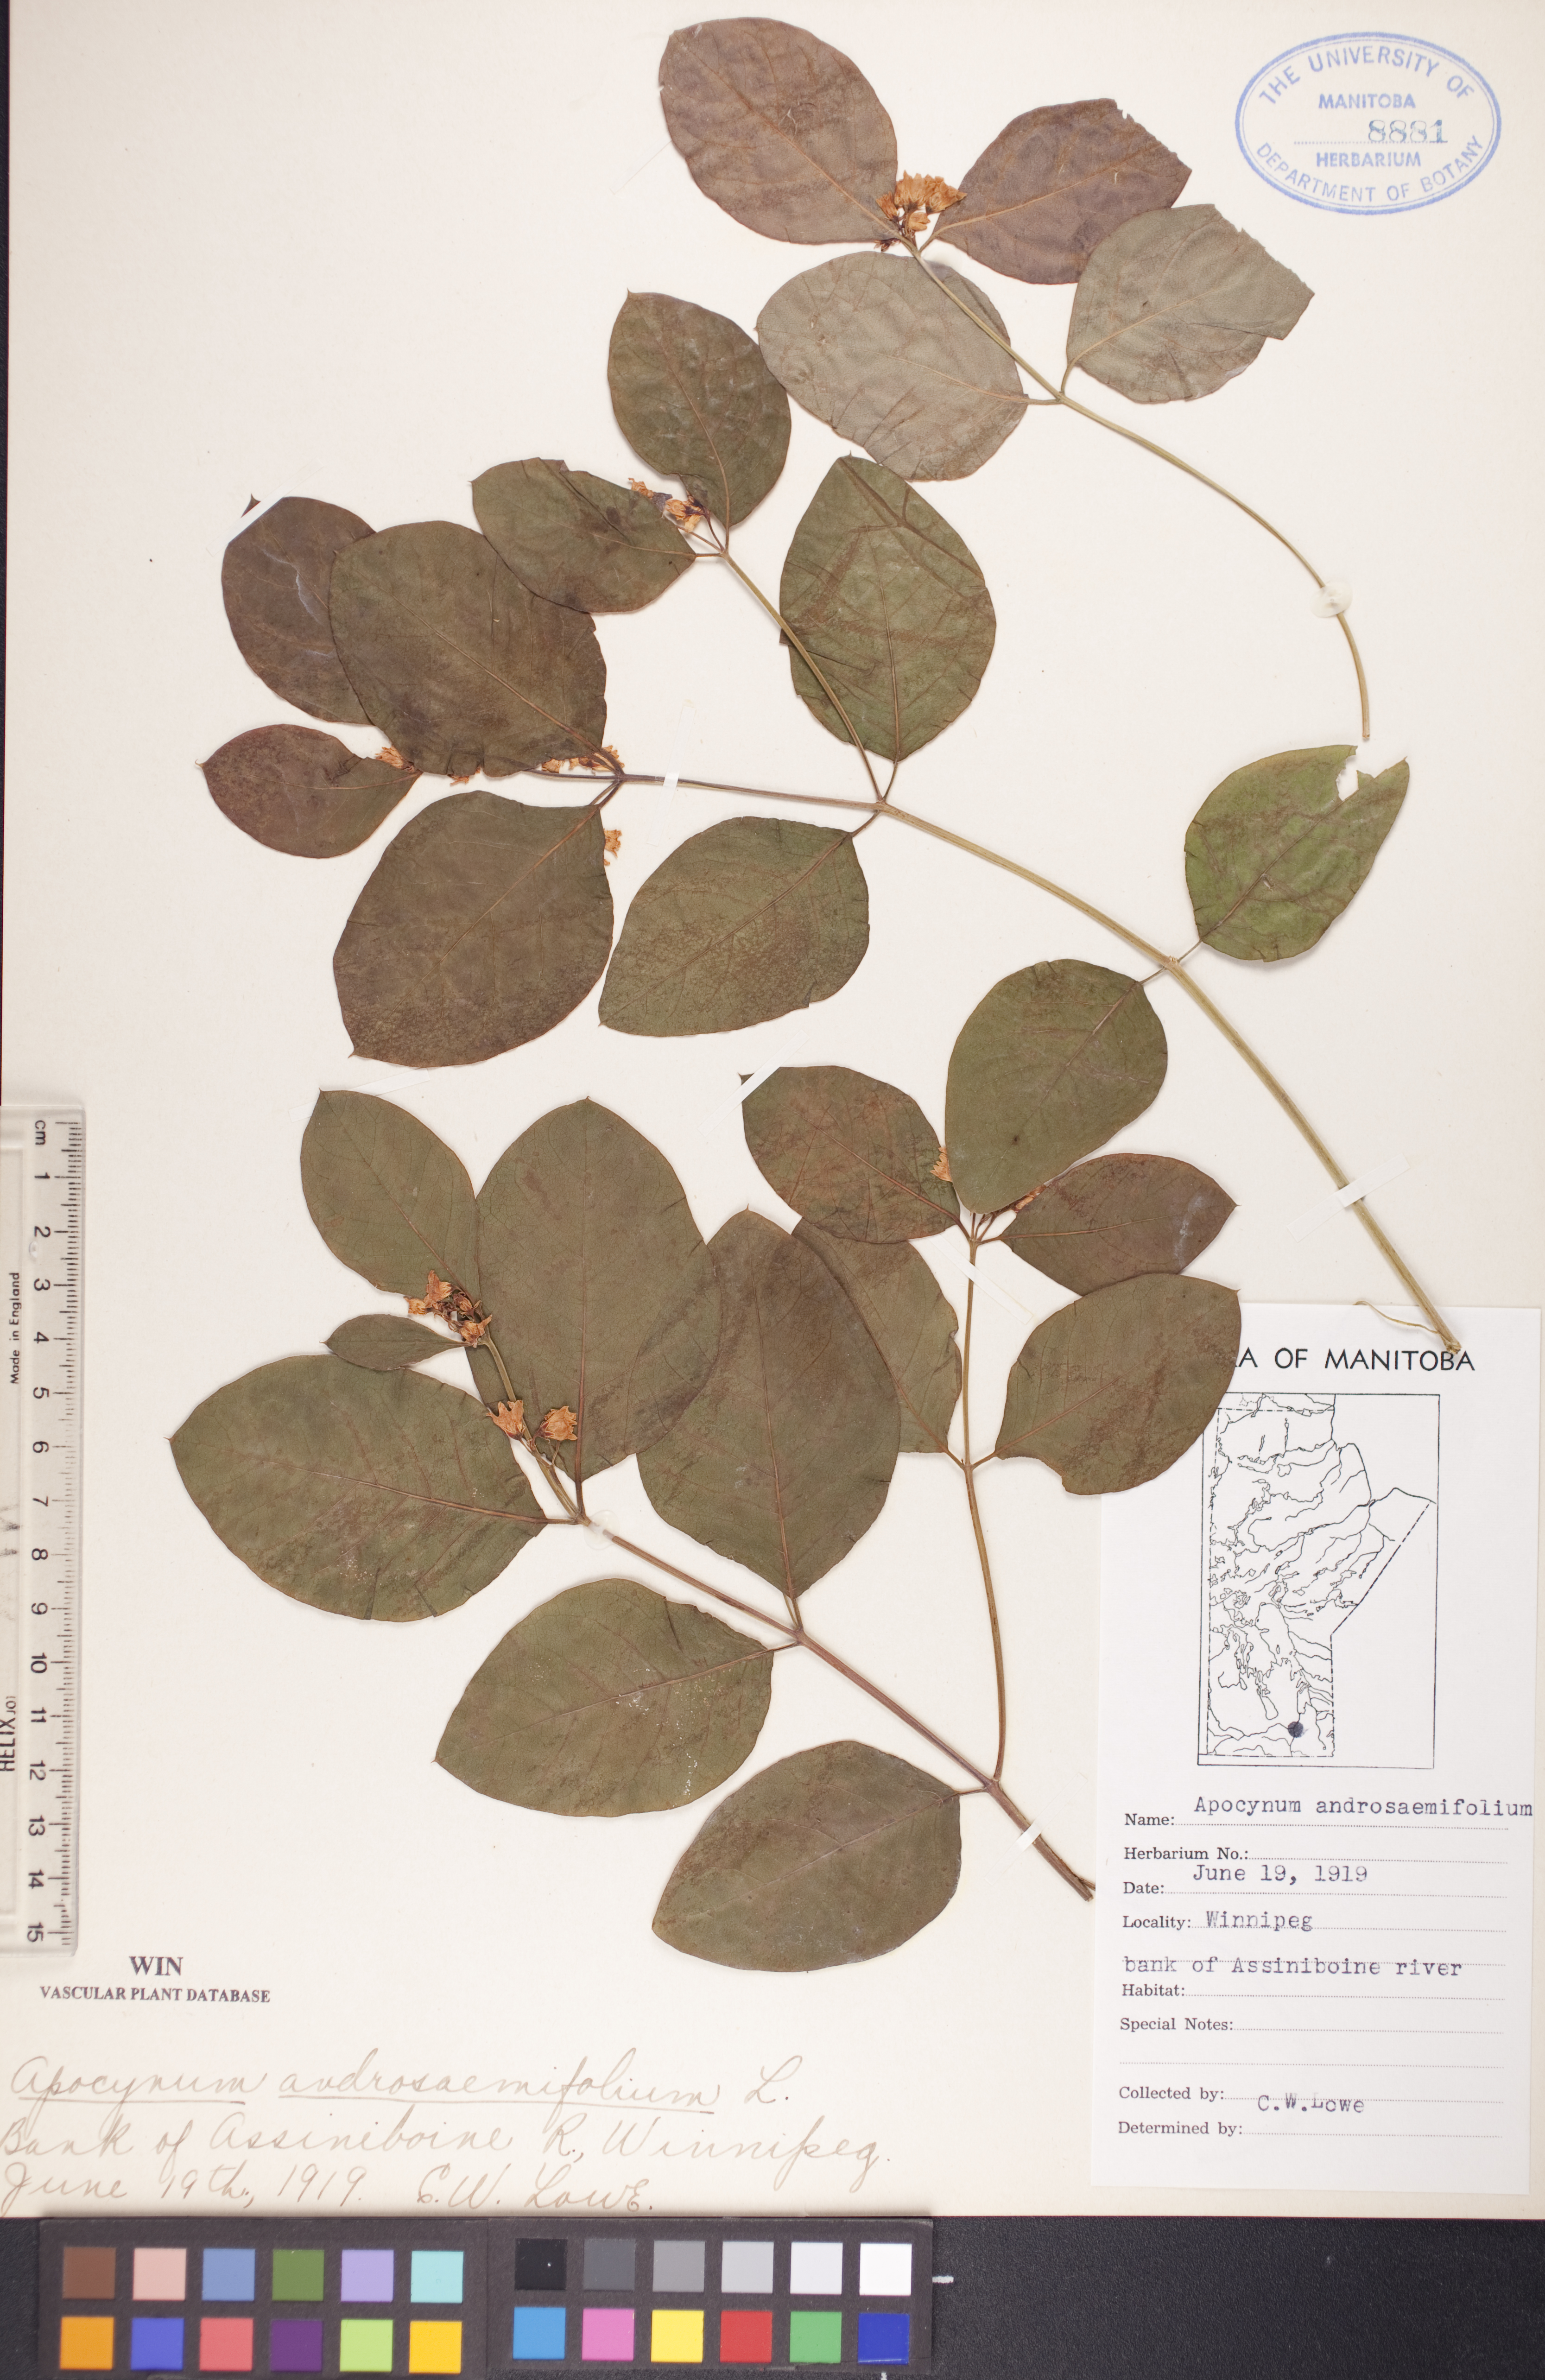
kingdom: Plantae
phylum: Tracheophyta
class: Magnoliopsida
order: Gentianales
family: Apocynaceae
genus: Apocynum
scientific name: Apocynum androsaemifolium
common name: Spreading dogbane
